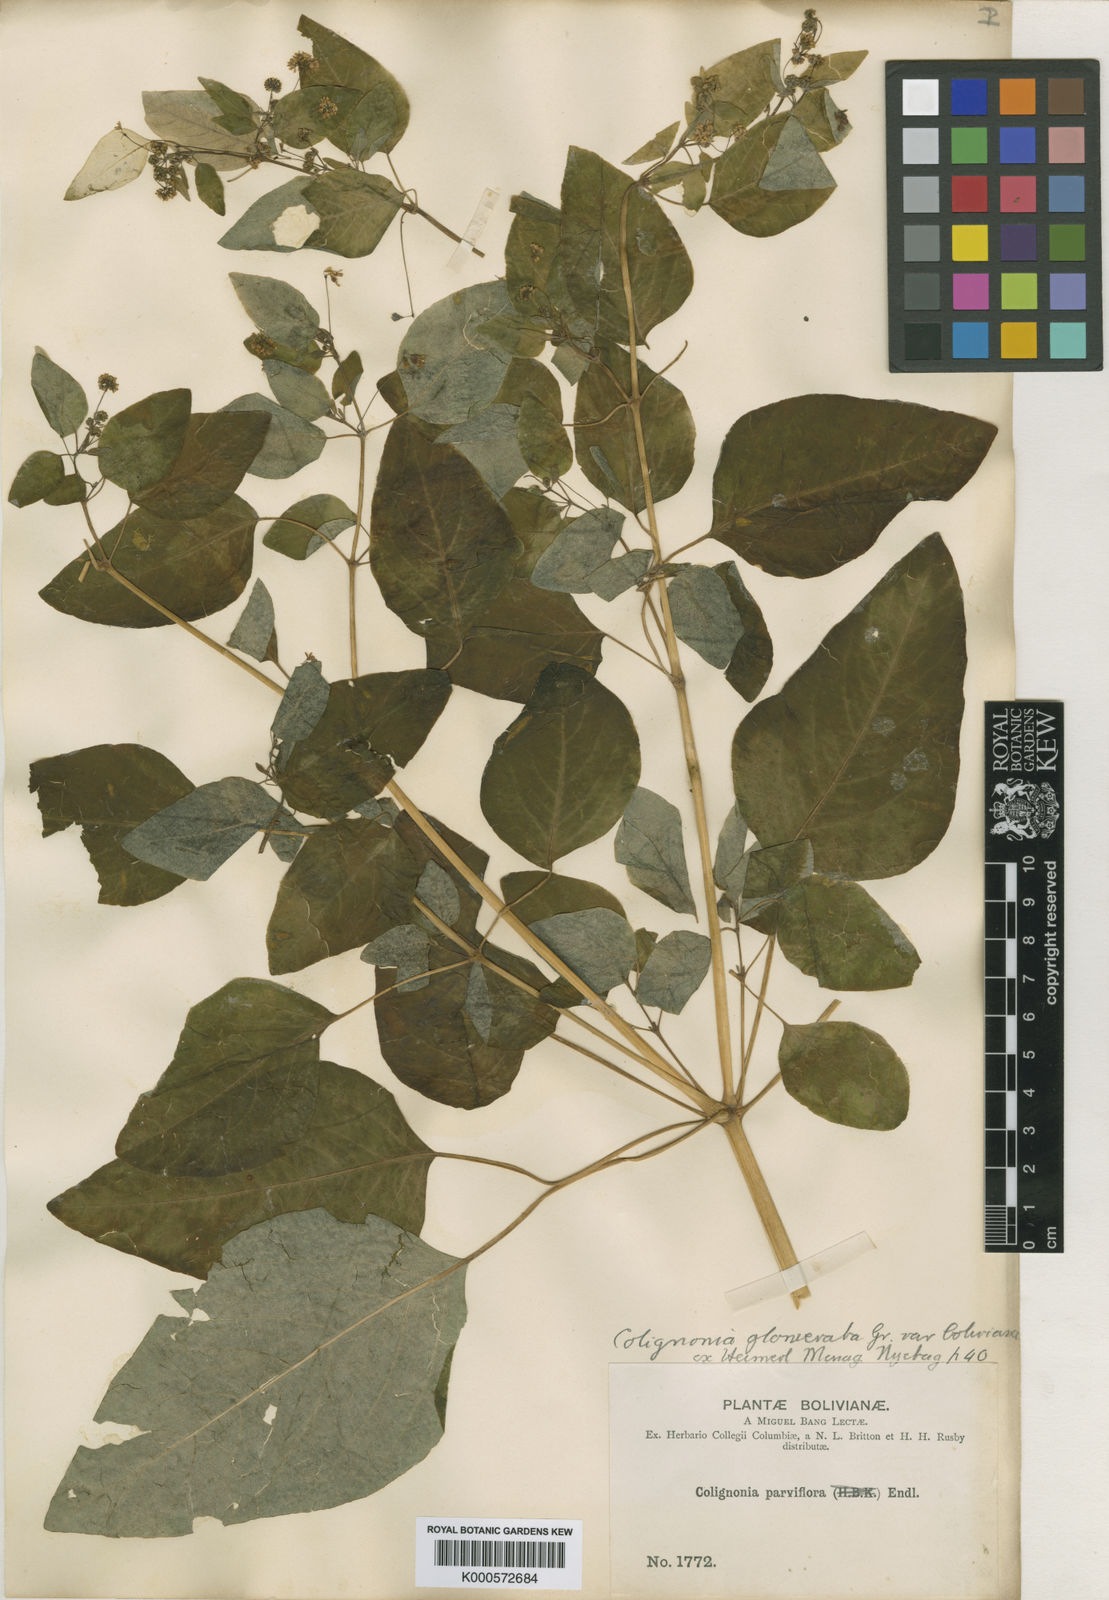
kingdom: Plantae
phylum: Tracheophyta
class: Magnoliopsida
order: Caryophyllales
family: Nyctaginaceae
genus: Colignonia
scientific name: Colignonia glomerata
